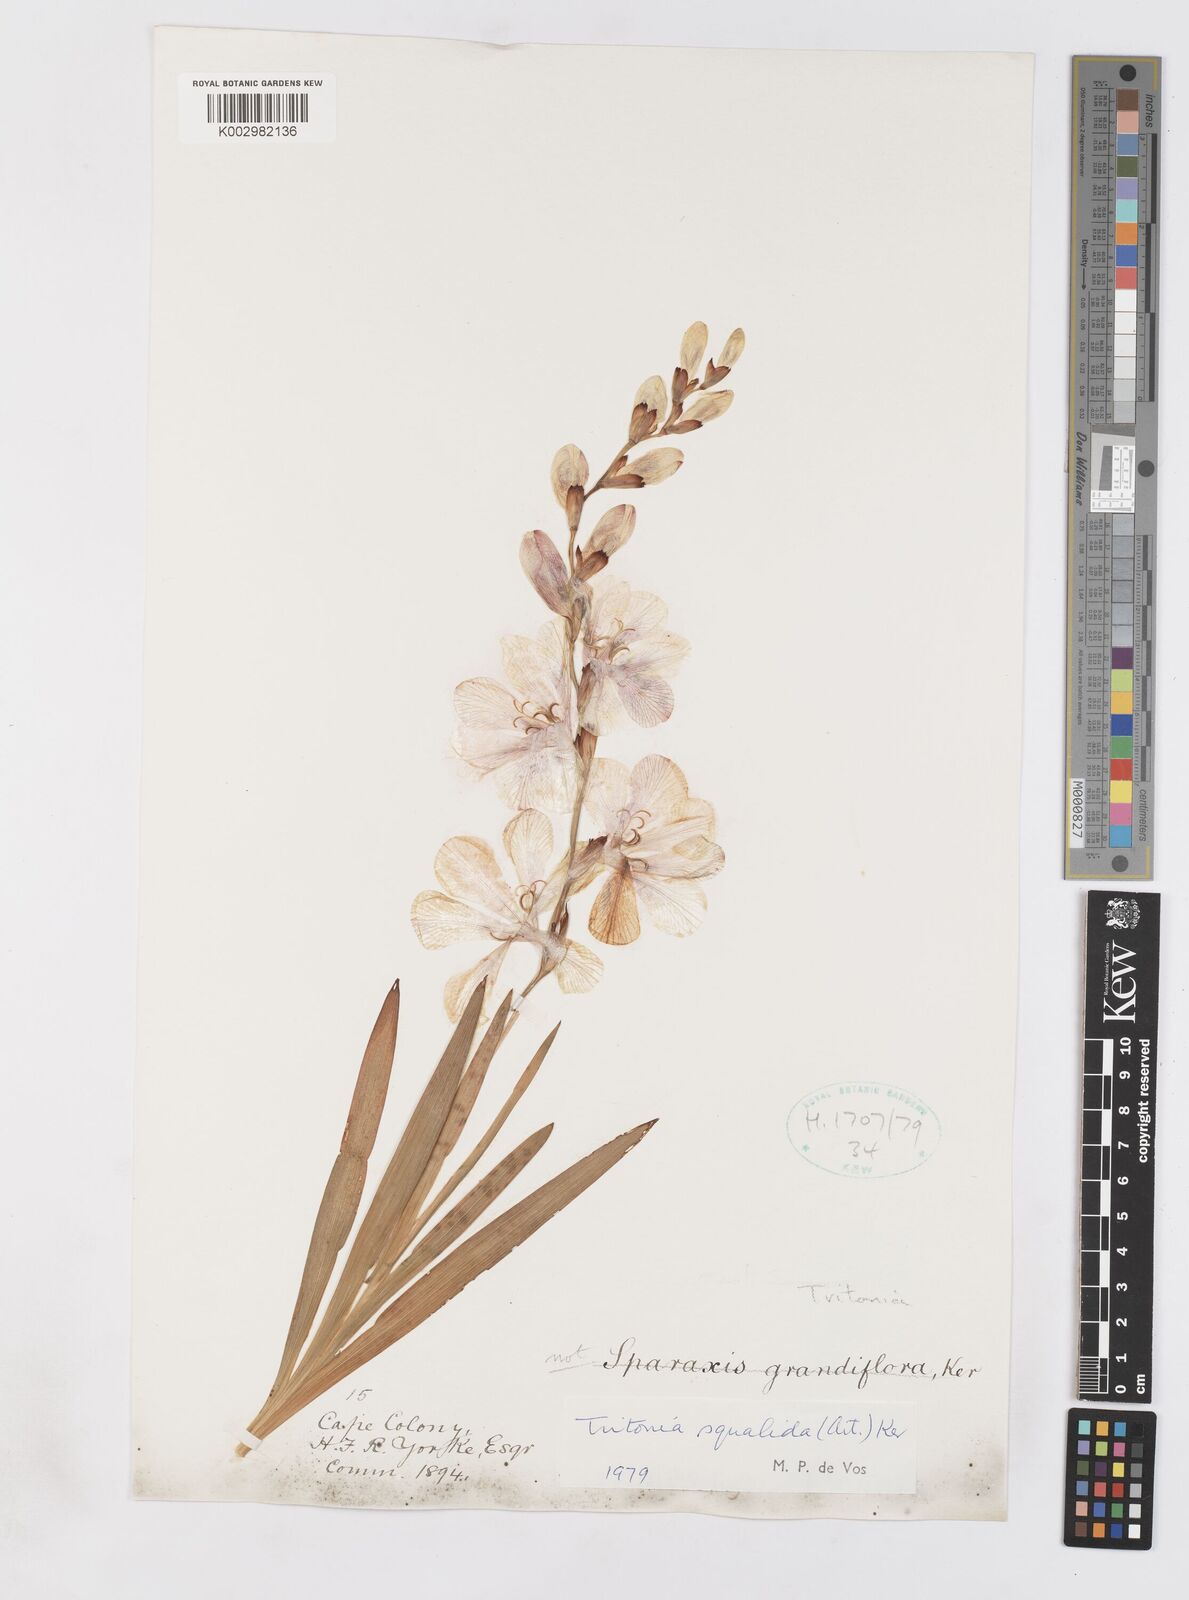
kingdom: Plantae
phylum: Tracheophyta
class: Liliopsida
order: Asparagales
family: Iridaceae
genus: Tritonia
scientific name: Tritonia squalida
